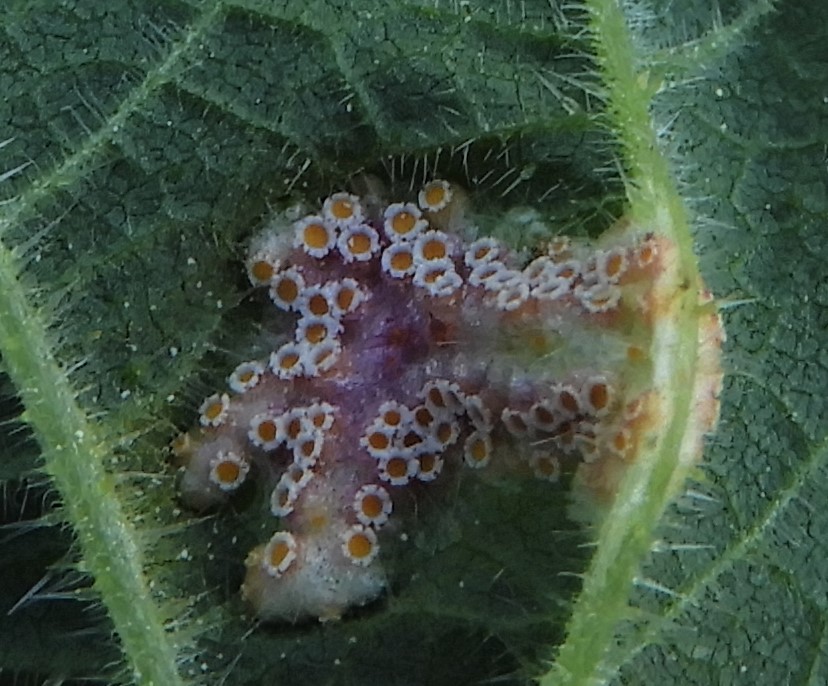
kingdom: Fungi
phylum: Basidiomycota
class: Pucciniomycetes
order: Pucciniales
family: Pucciniaceae
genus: Puccinia
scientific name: Puccinia
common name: tvecellerust
